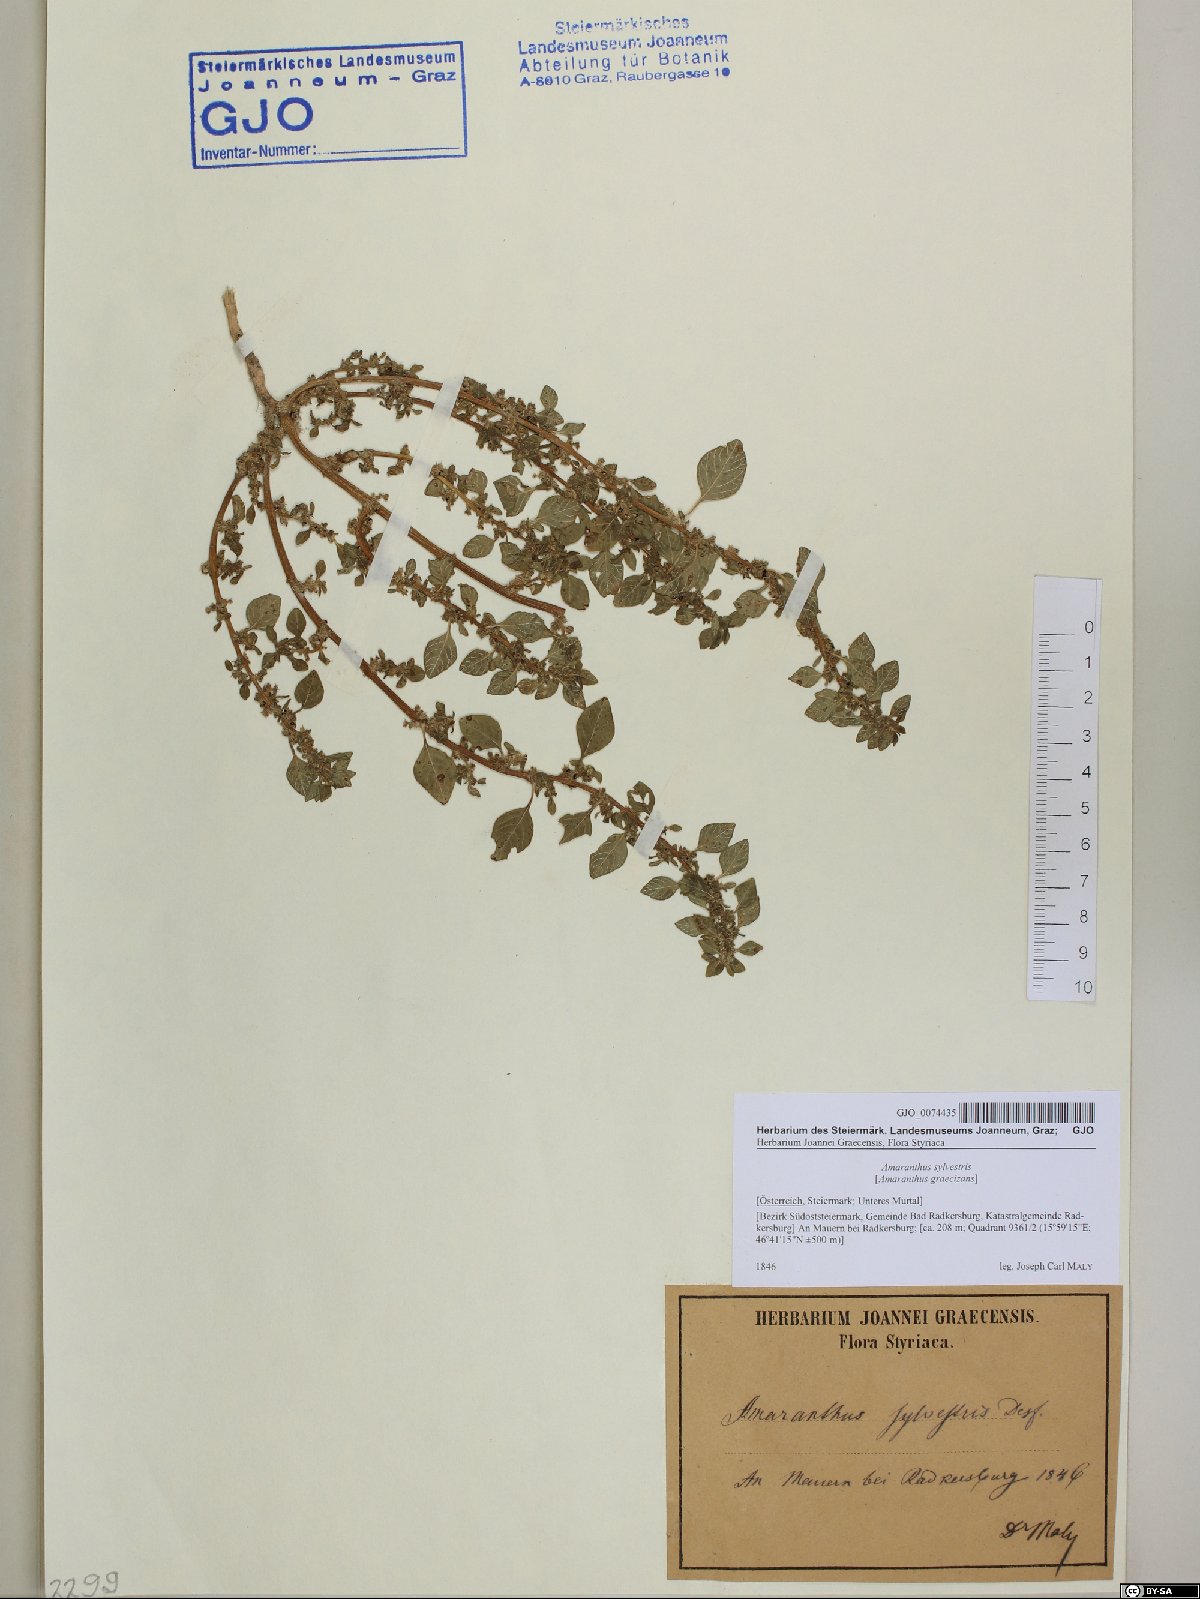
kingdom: Plantae
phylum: Tracheophyta
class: Magnoliopsida
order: Caryophyllales
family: Amaranthaceae
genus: Amaranthus
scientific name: Amaranthus graecizans
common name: Mediterranean amaranth
